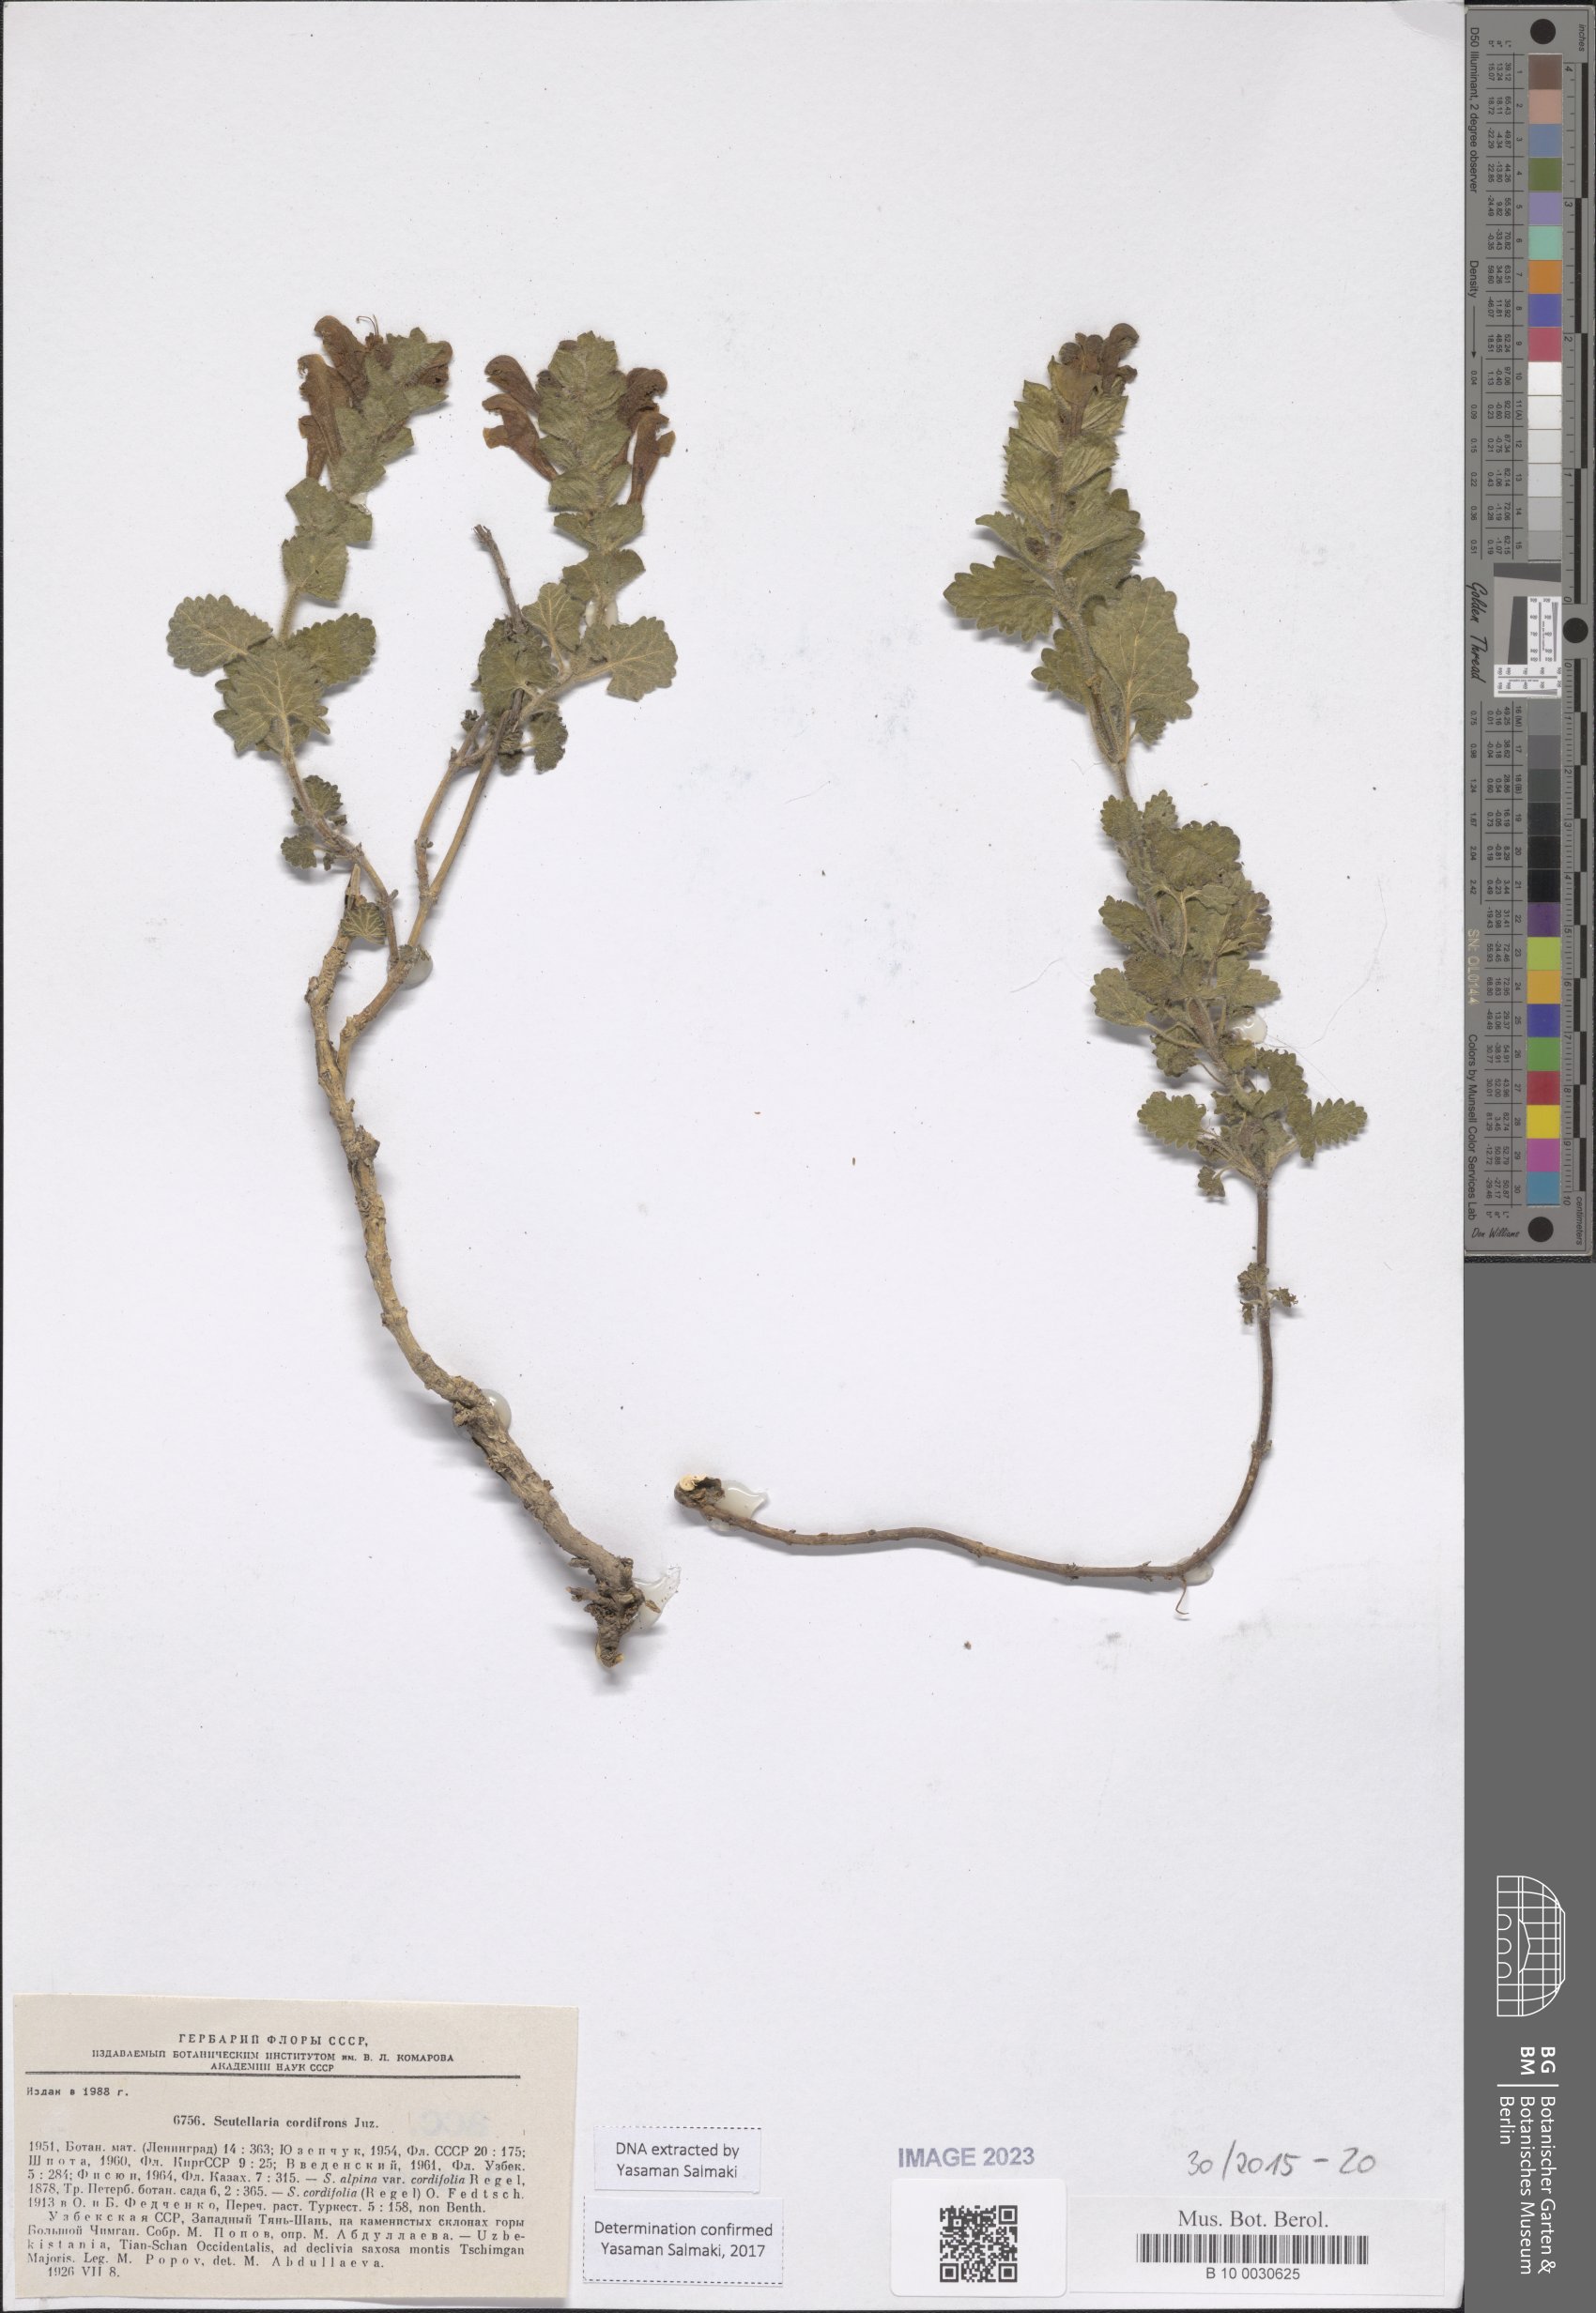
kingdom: Plantae
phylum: Tracheophyta
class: Magnoliopsida
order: Lamiales
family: Lamiaceae
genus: Scutellaria
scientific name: Scutellaria cordifrons
